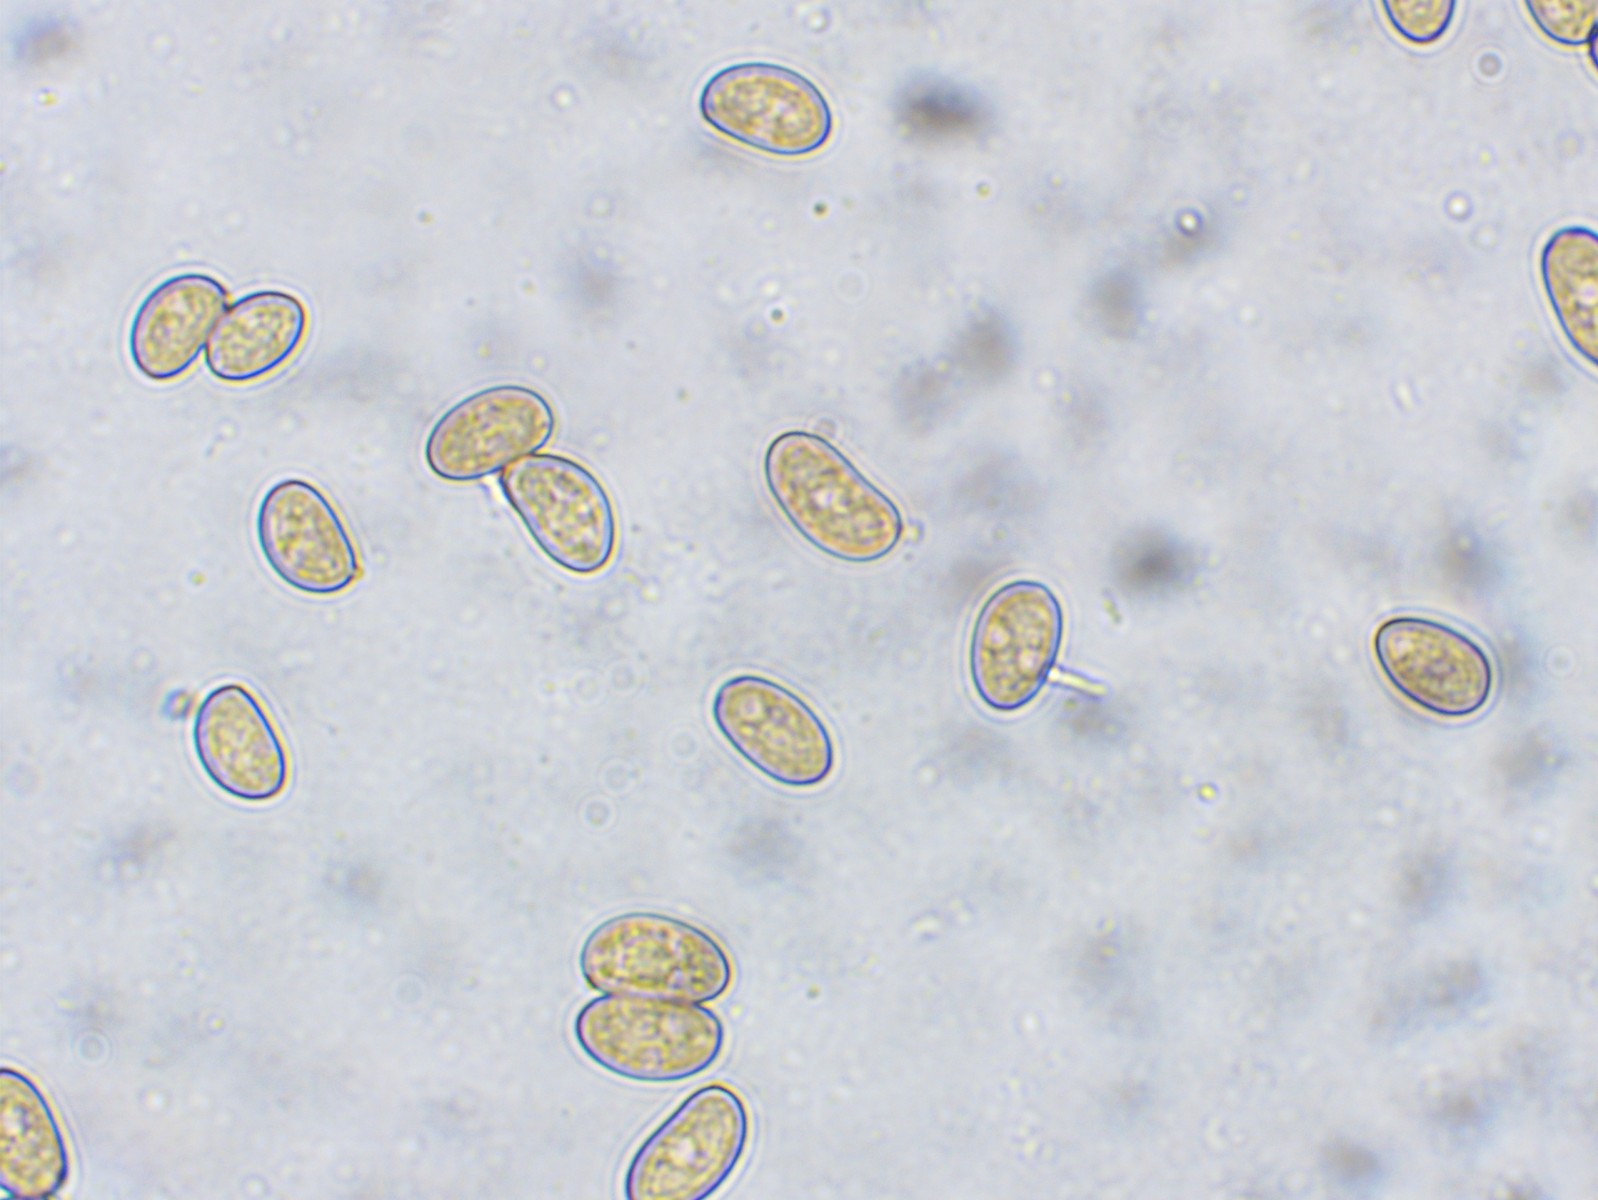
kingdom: Fungi
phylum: Basidiomycota
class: Agaricomycetes
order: Agaricales
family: Inocybaceae
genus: Pseudosperma
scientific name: Pseudosperma rimosum
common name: gulbladet trævlhat
